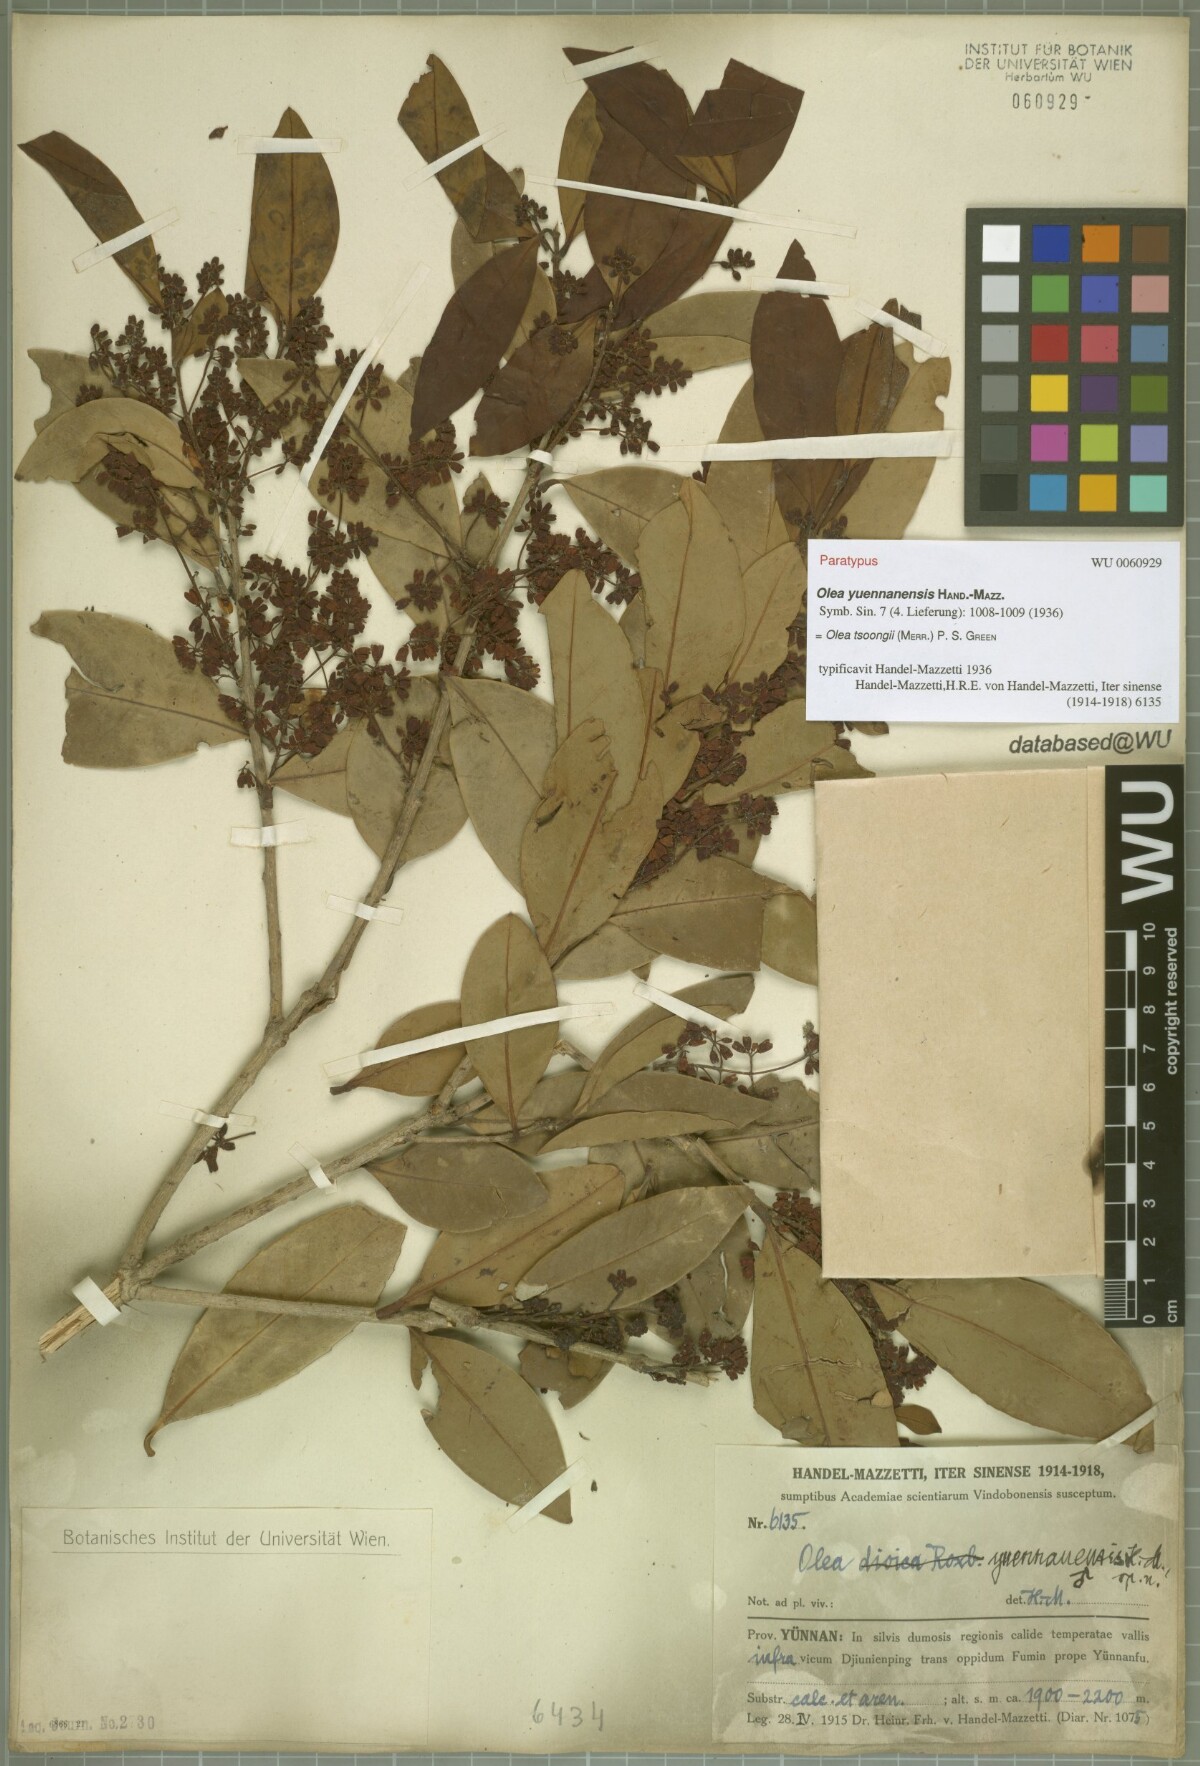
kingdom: Plantae
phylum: Tracheophyta
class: Magnoliopsida
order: Lamiales
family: Oleaceae
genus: Tetrapilus
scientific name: Tetrapilus tsoongii
